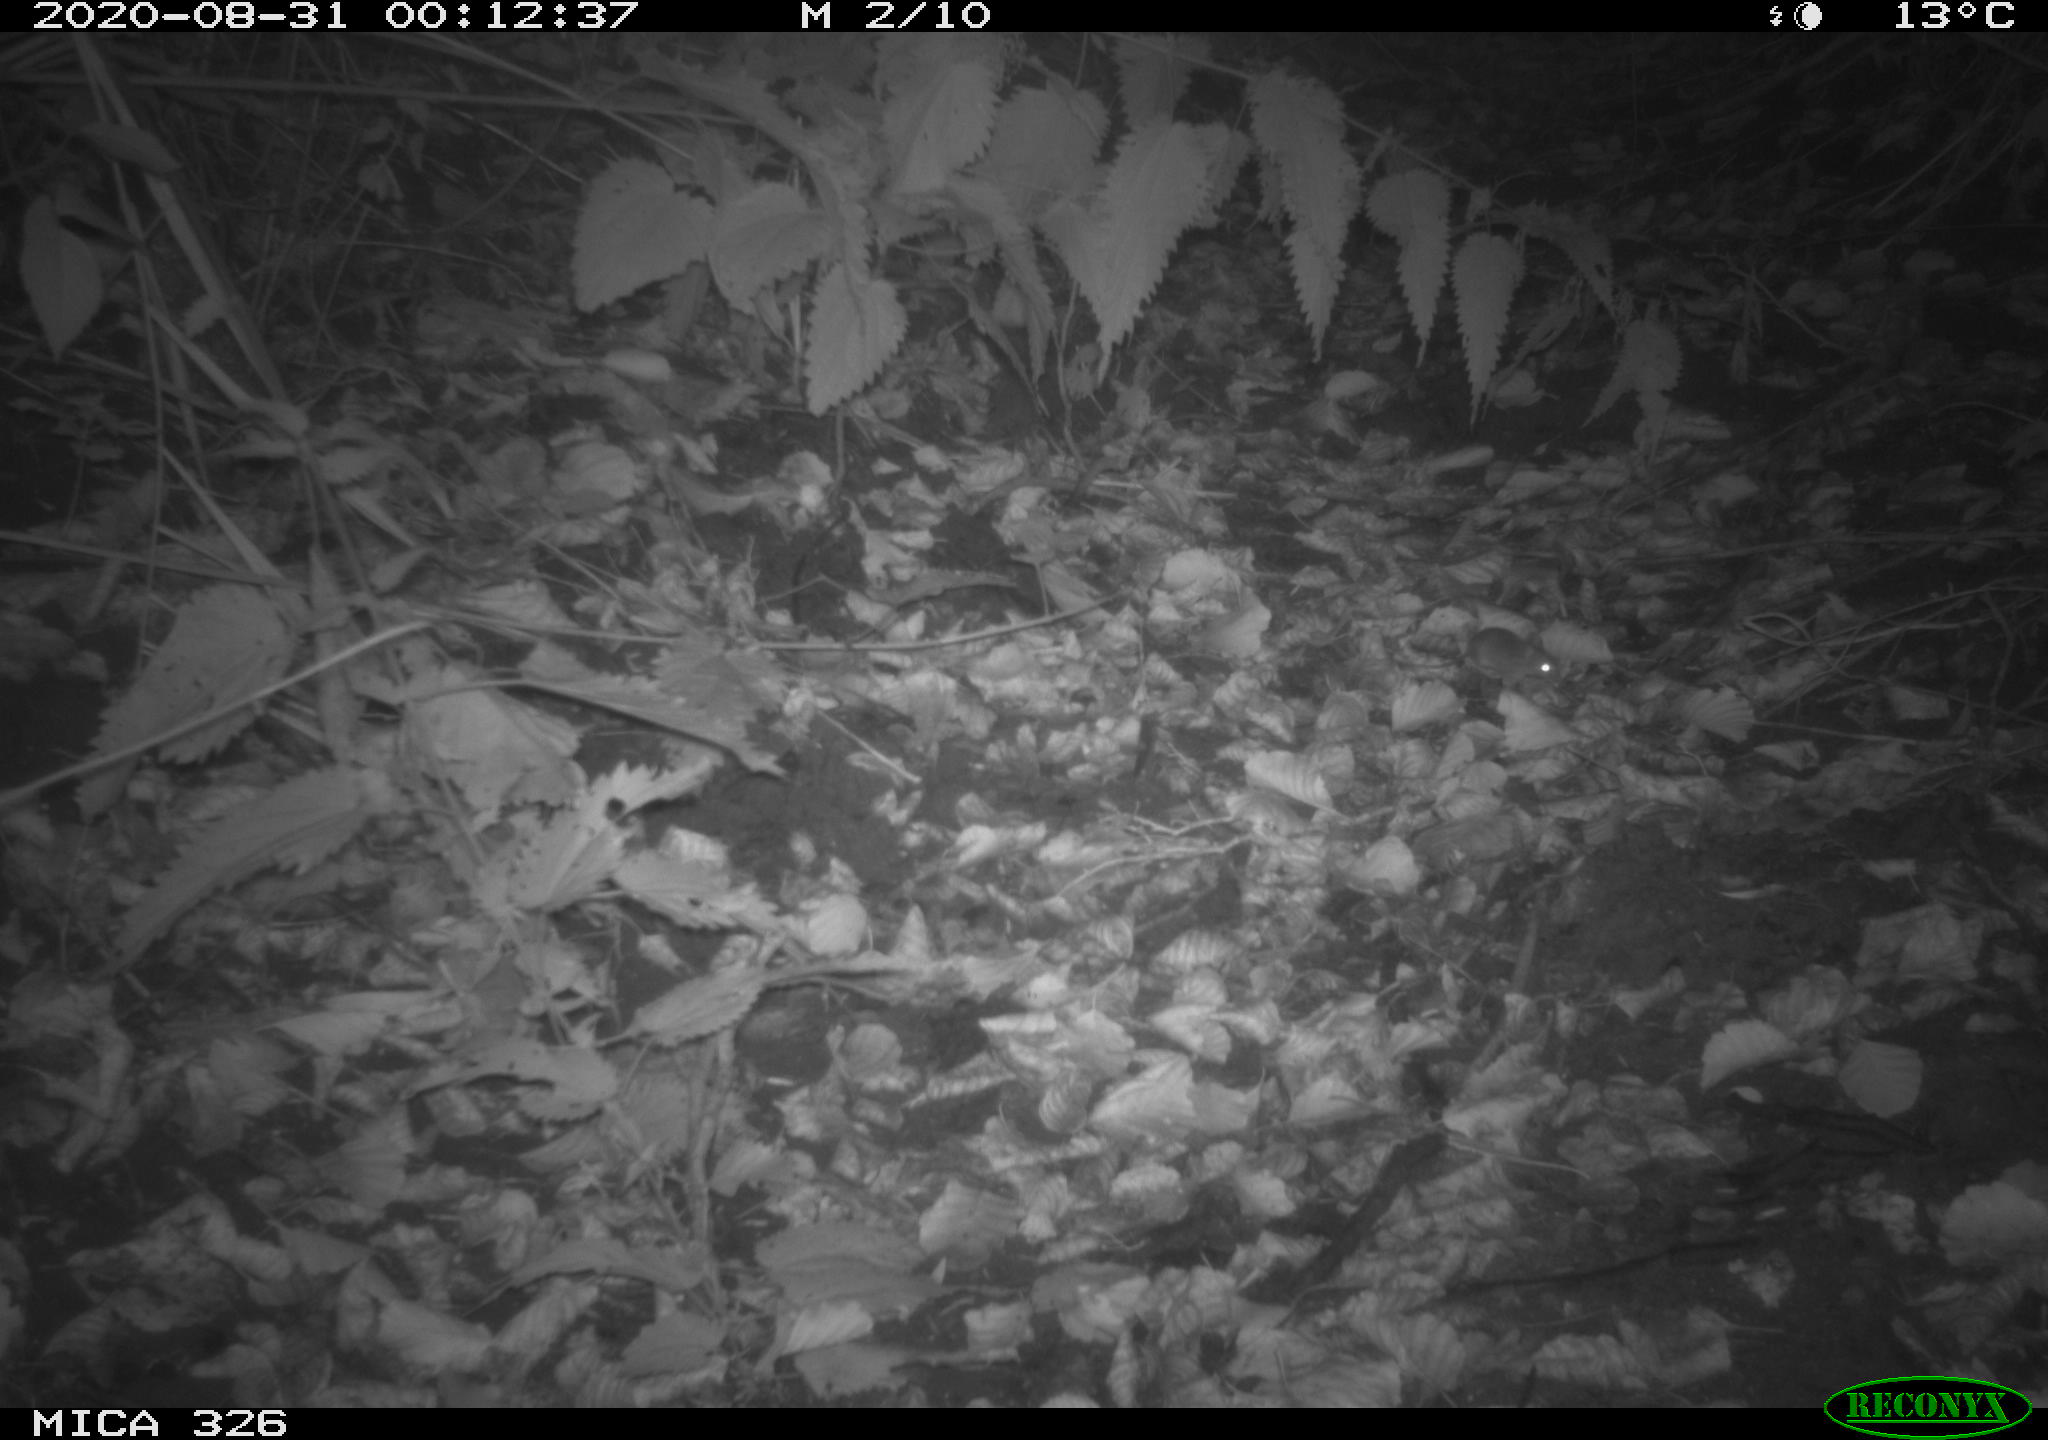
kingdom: Animalia
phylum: Chordata
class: Mammalia
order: Rodentia
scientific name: Rodentia
